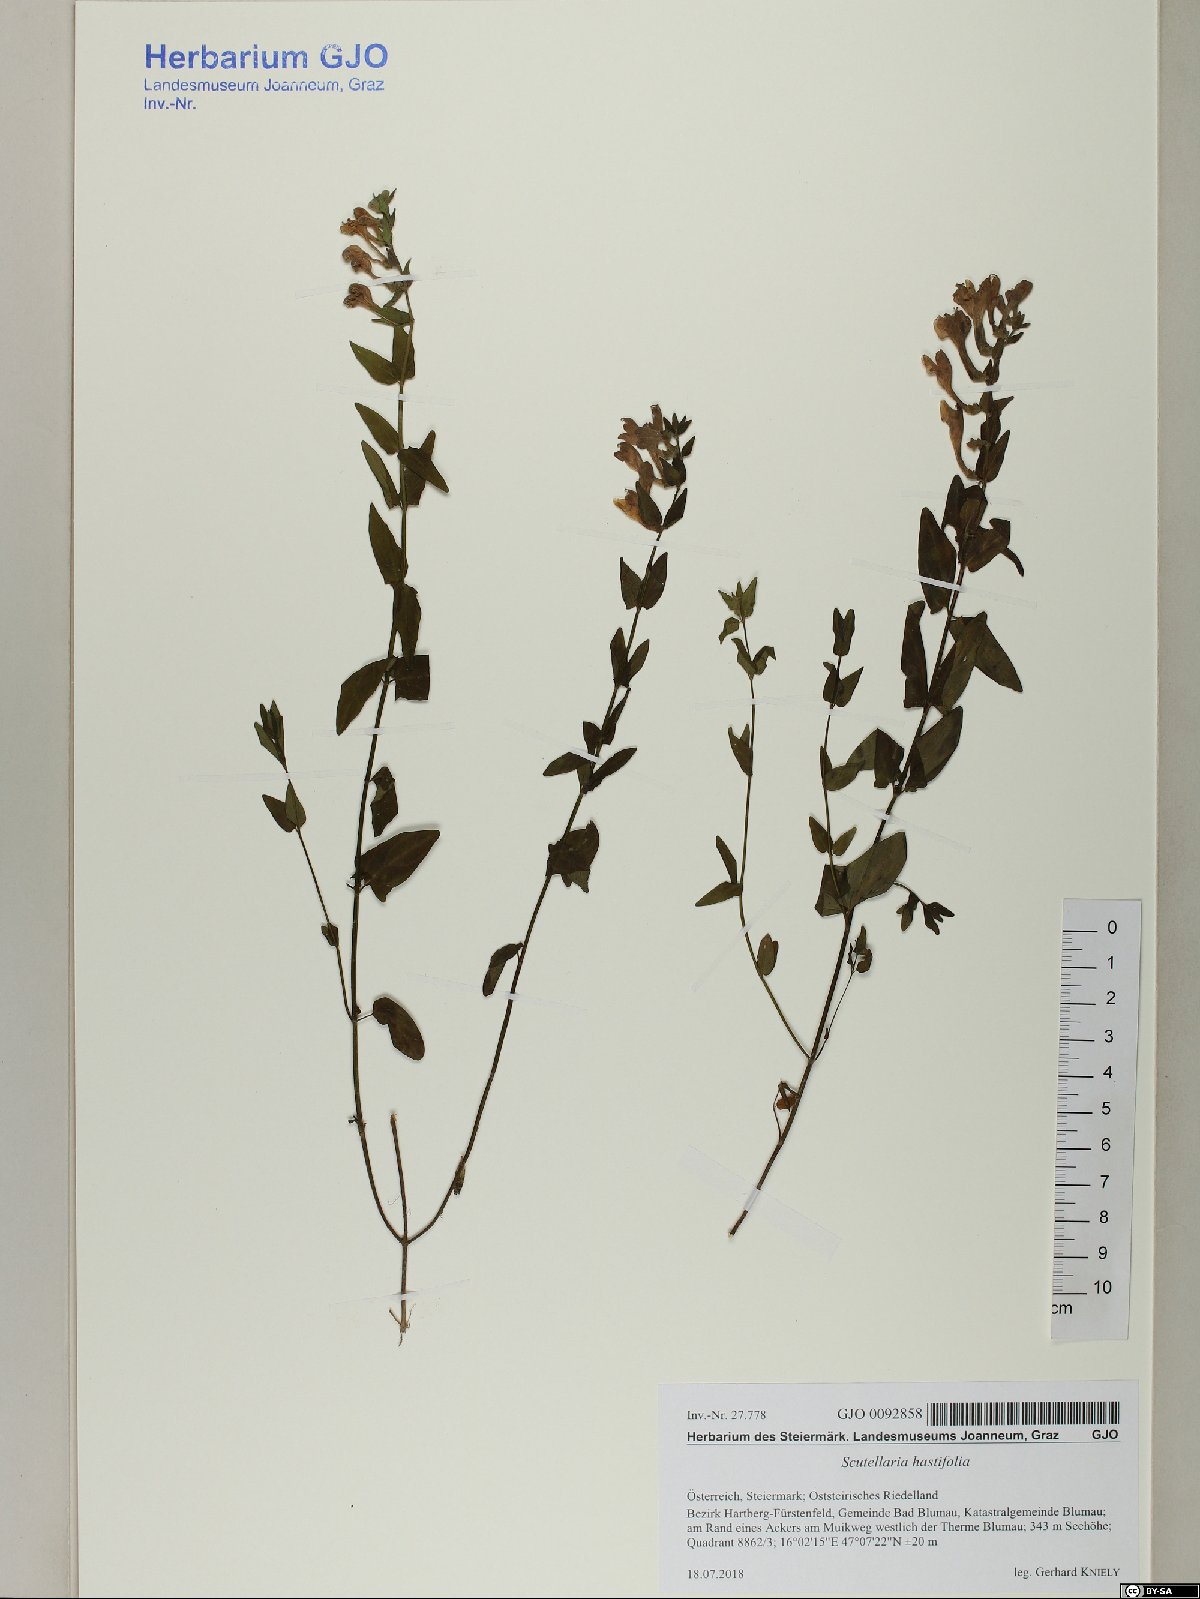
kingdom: Plantae
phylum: Tracheophyta
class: Magnoliopsida
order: Lamiales
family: Lamiaceae
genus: Scutellaria
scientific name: Scutellaria hastifolia
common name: Norfolk skullcap
